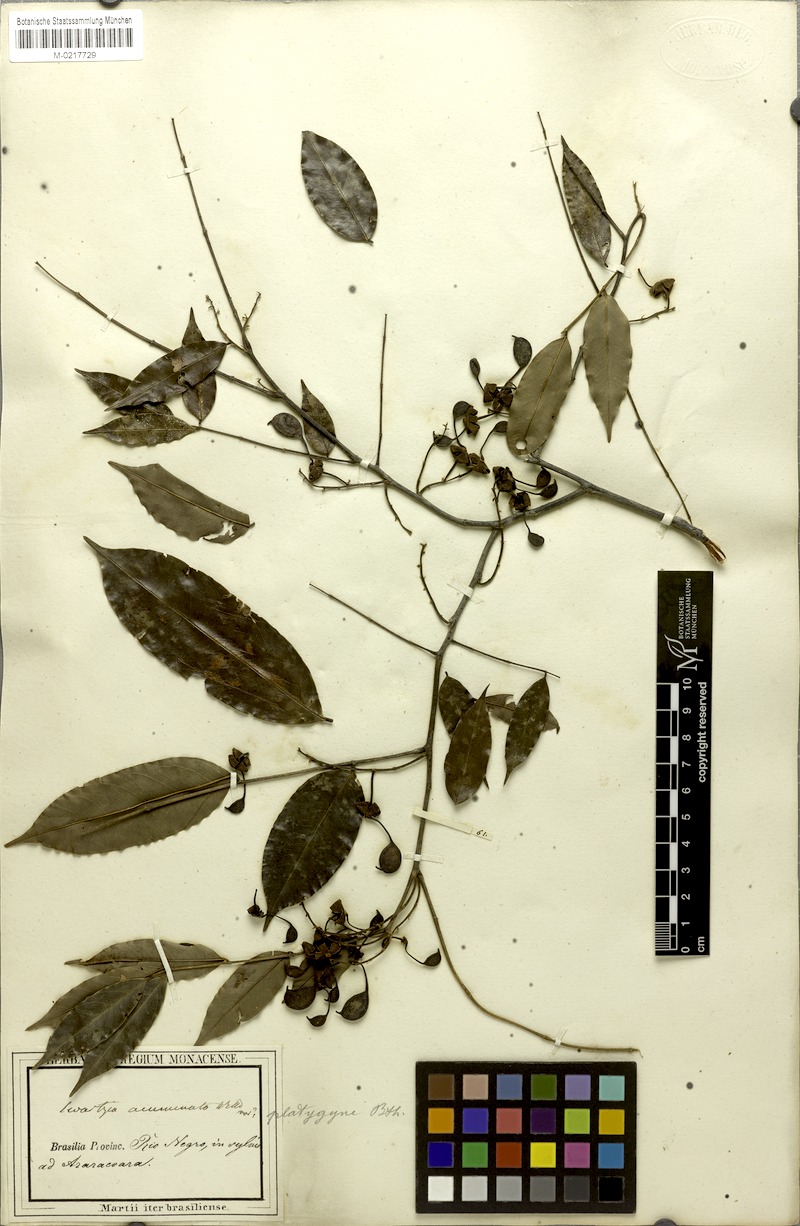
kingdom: Plantae
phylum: Tracheophyta
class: Magnoliopsida
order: Fabales
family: Fabaceae
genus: Swartzia
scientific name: Swartzia foliolosa
